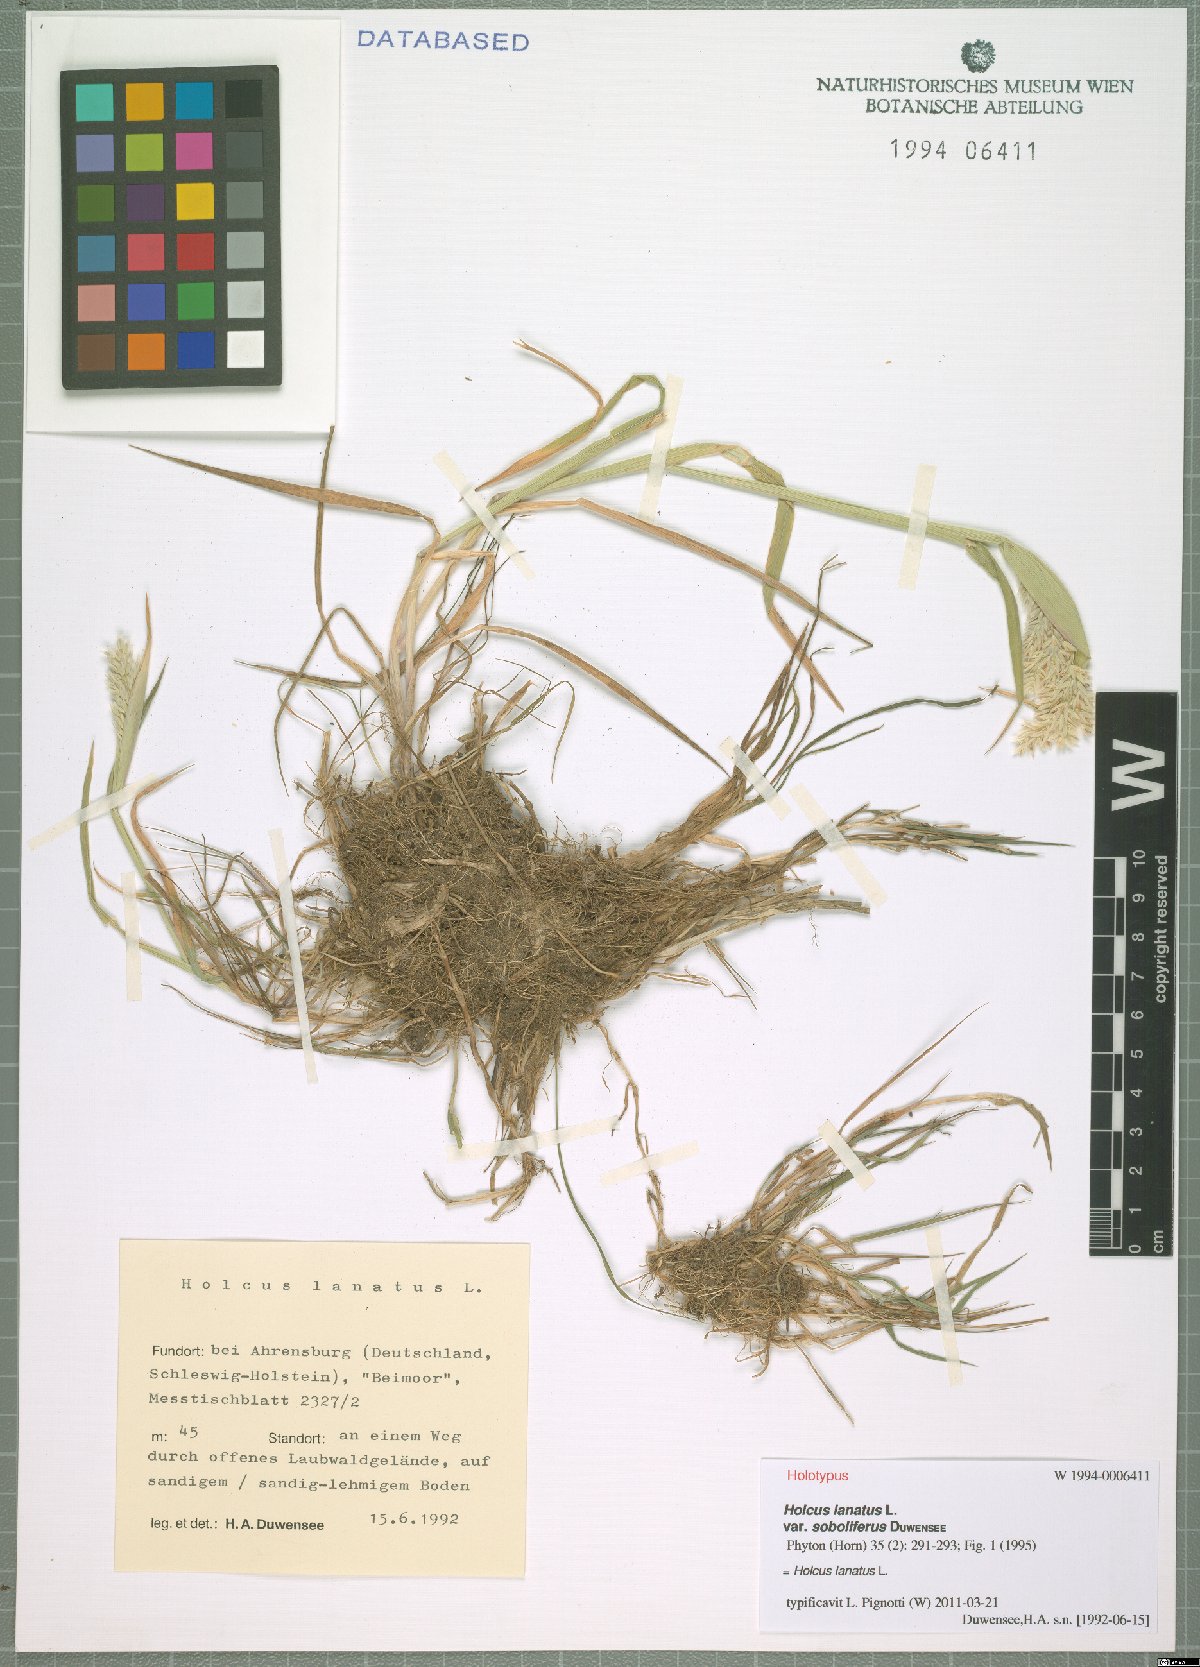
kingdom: Plantae
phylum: Tracheophyta
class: Liliopsida
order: Poales
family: Poaceae
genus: Holcus
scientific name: Holcus lanatus
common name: Yorkshire-fog
